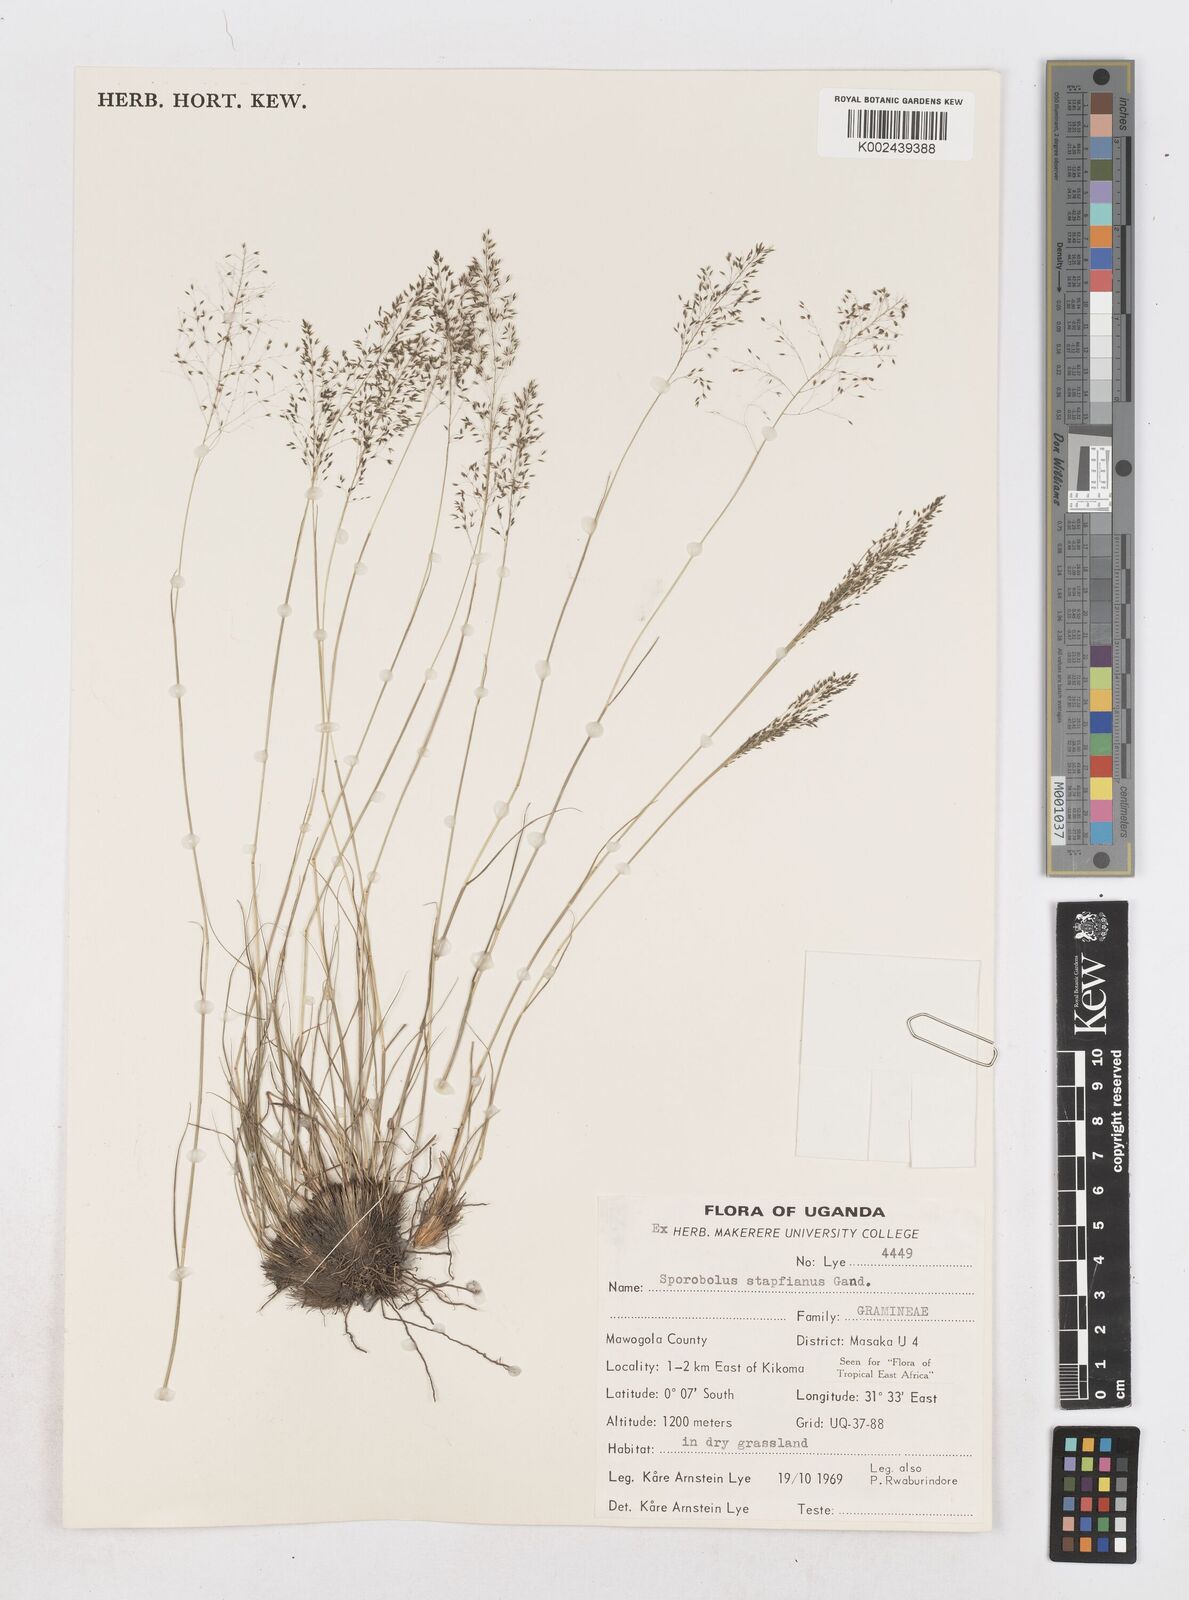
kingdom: Plantae
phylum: Tracheophyta
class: Liliopsida
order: Poales
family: Poaceae
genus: Sporobolus
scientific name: Sporobolus stapfianus
